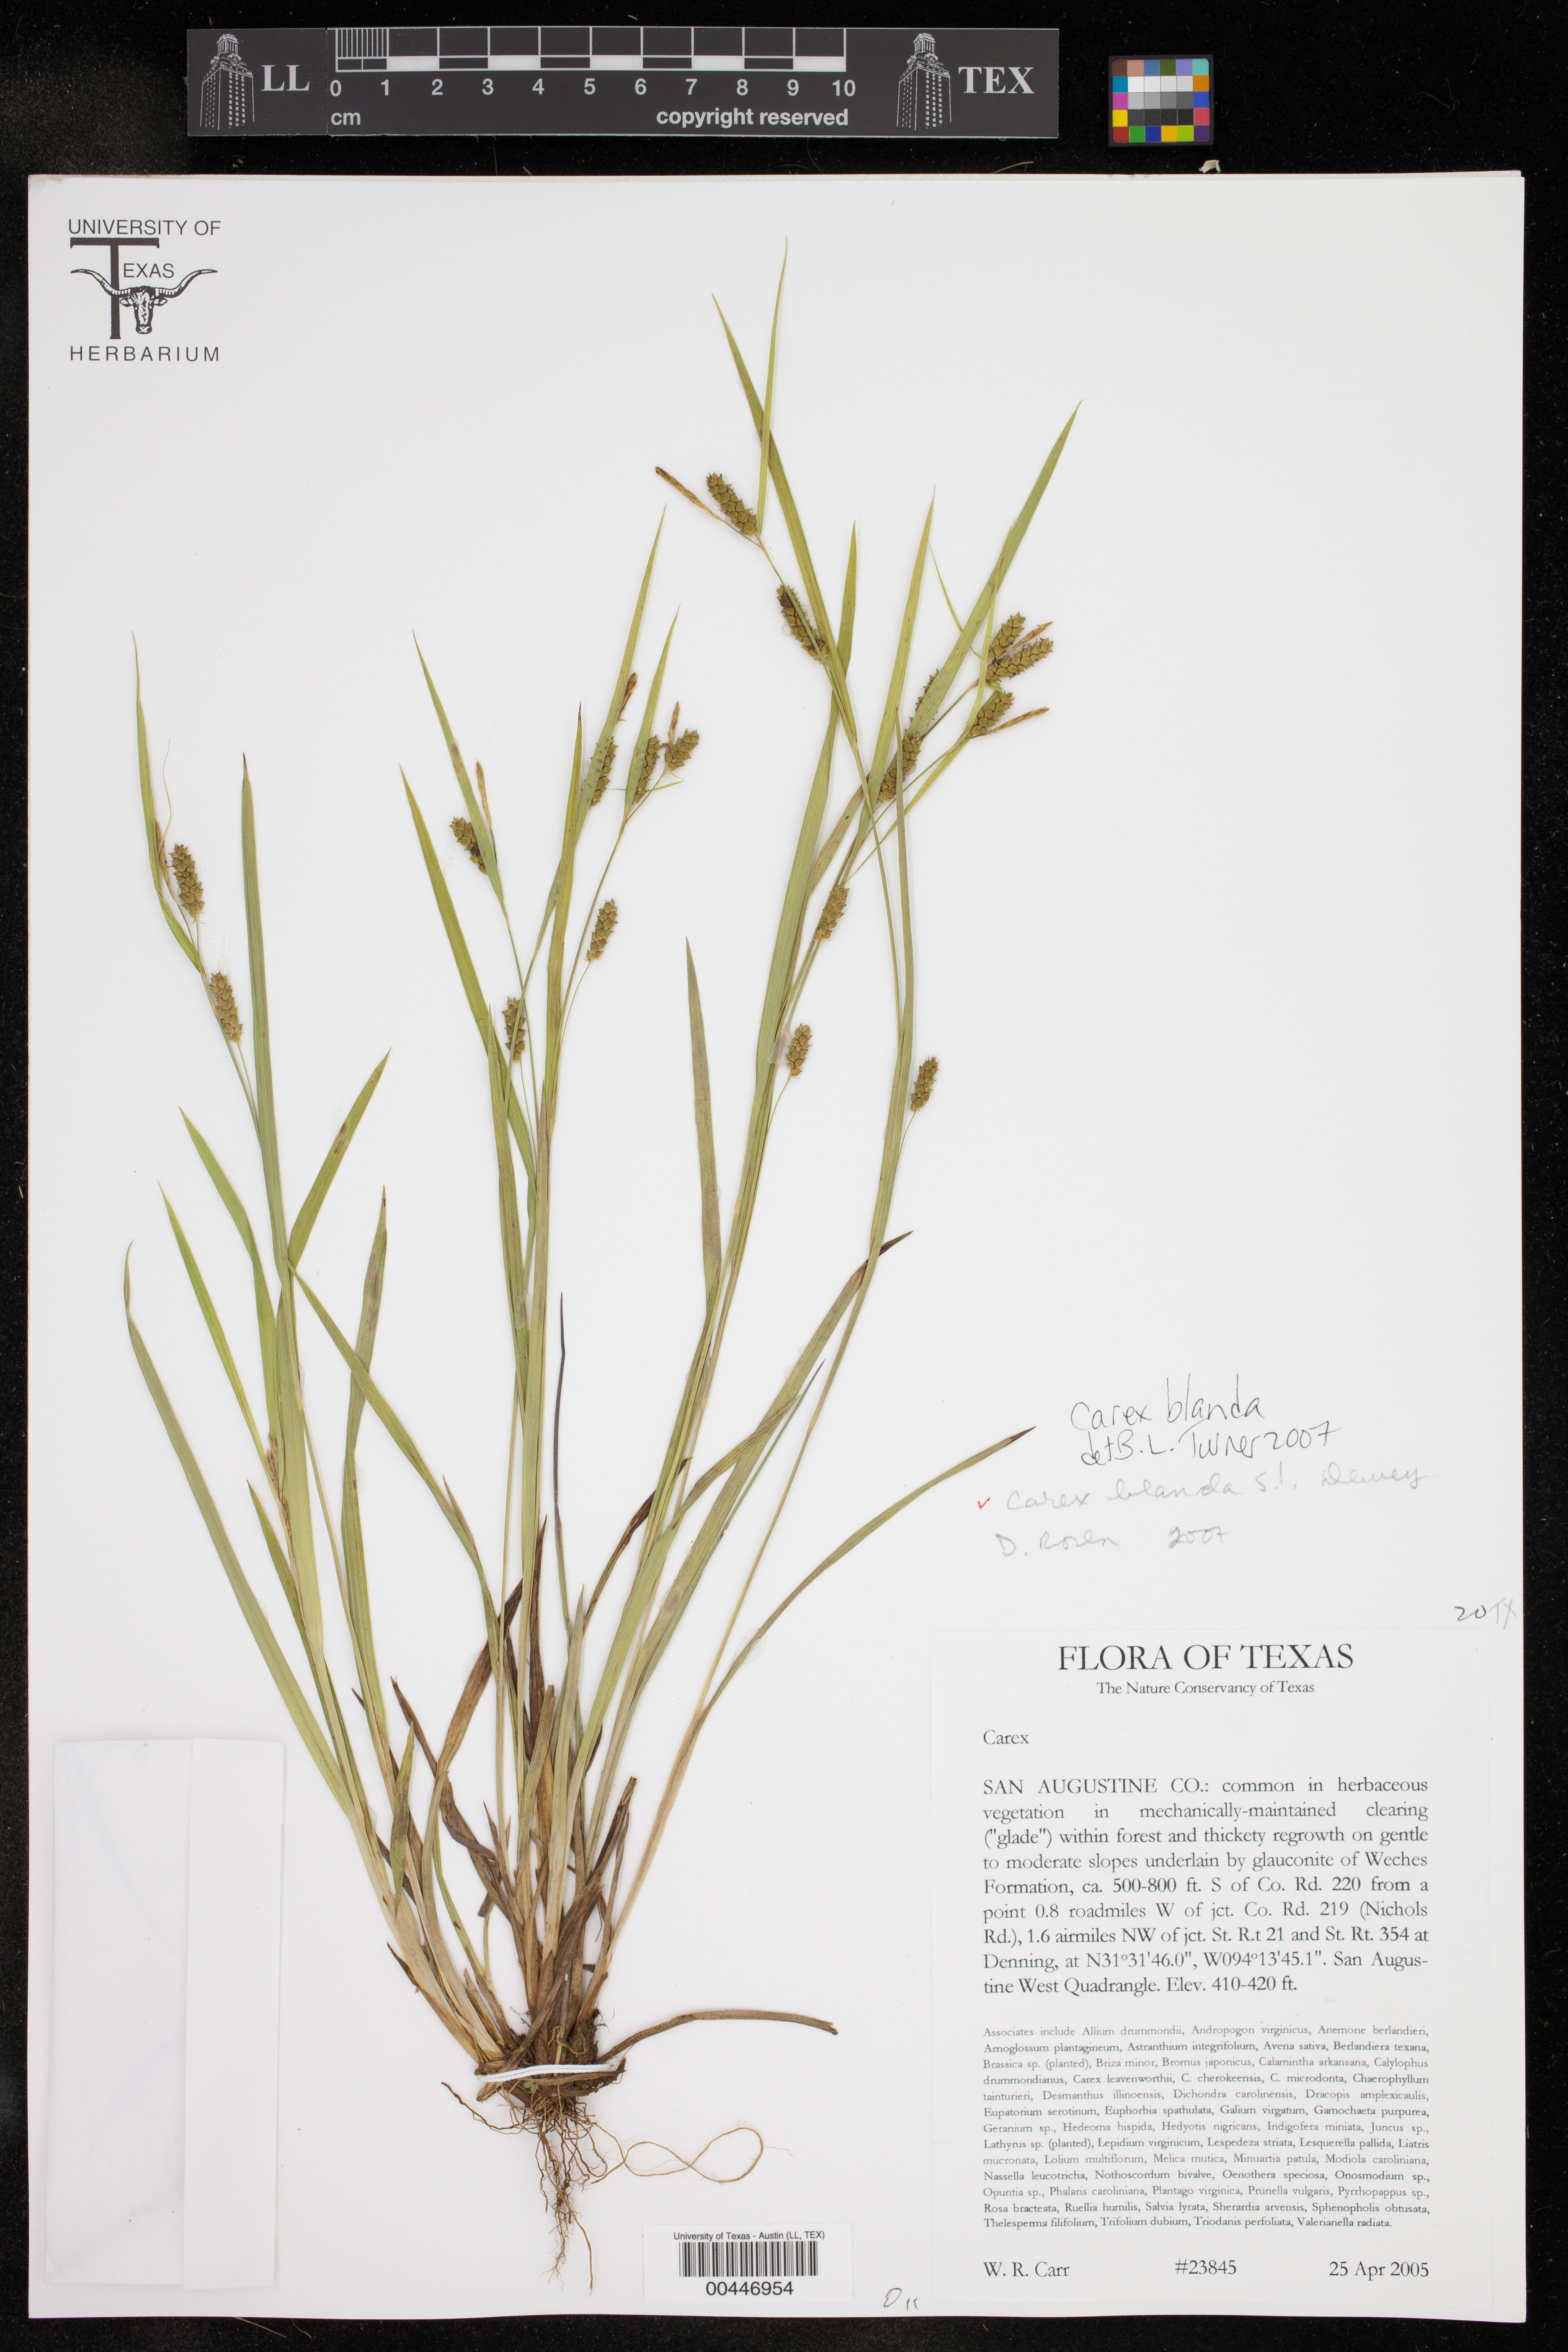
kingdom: Plantae
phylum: Tracheophyta
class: Liliopsida
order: Poales
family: Cyperaceae
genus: Carex
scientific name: Carex blanda
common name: Bland sedge
